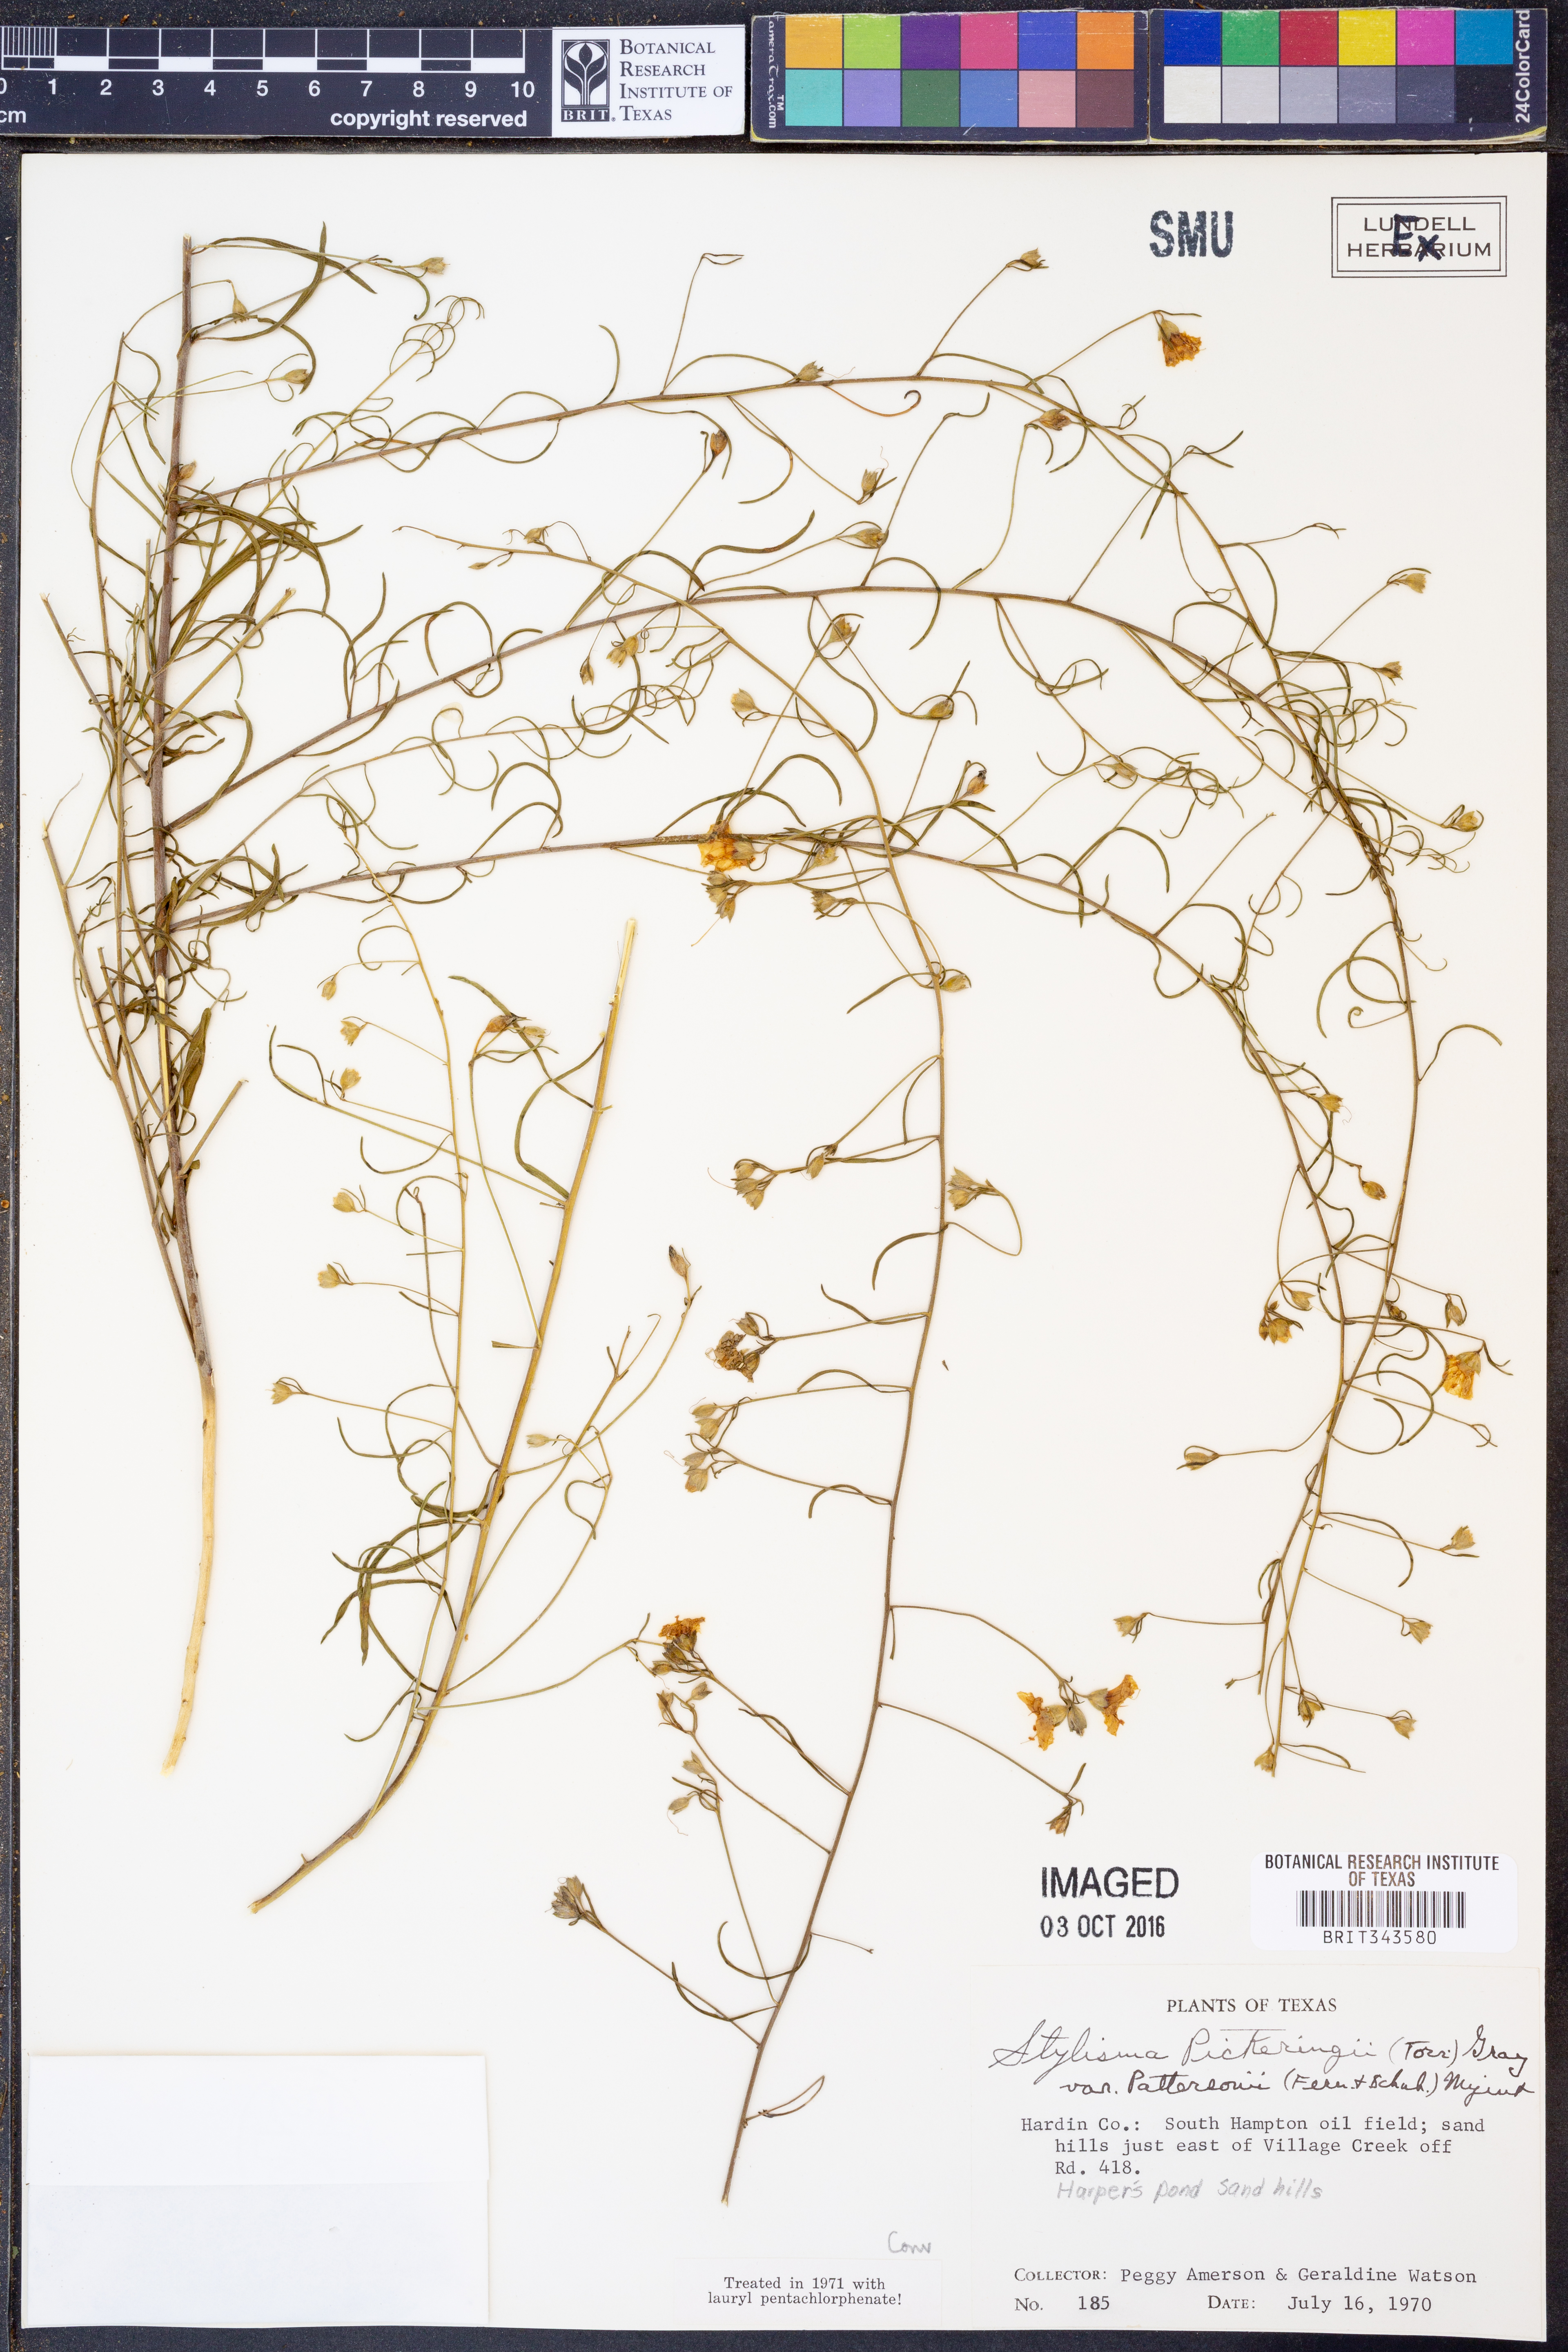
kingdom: Plantae
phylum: Tracheophyta
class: Magnoliopsida
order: Solanales
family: Convolvulaceae
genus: Stylisma
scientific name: Stylisma pickeringii
